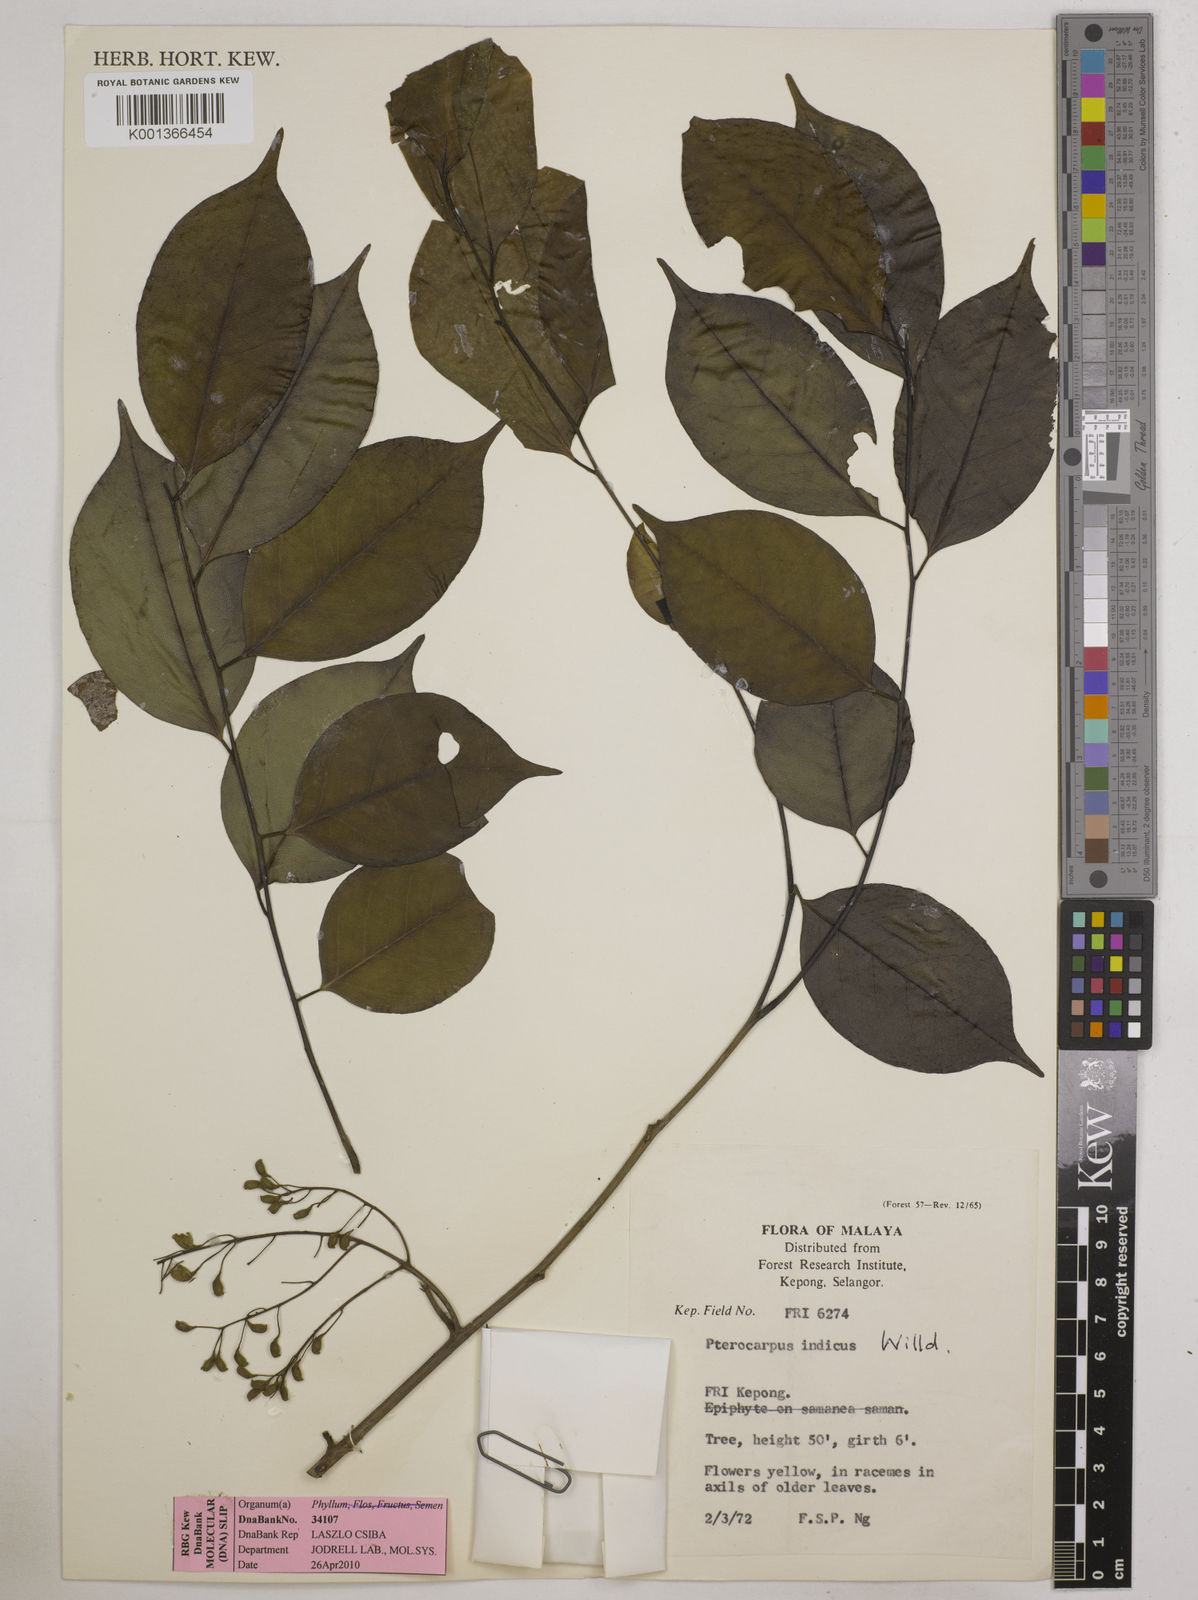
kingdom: Plantae
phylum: Tracheophyta
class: Magnoliopsida
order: Fabales
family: Fabaceae
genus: Pterocarpus
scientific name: Pterocarpus indicus
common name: Burmese rosewood
